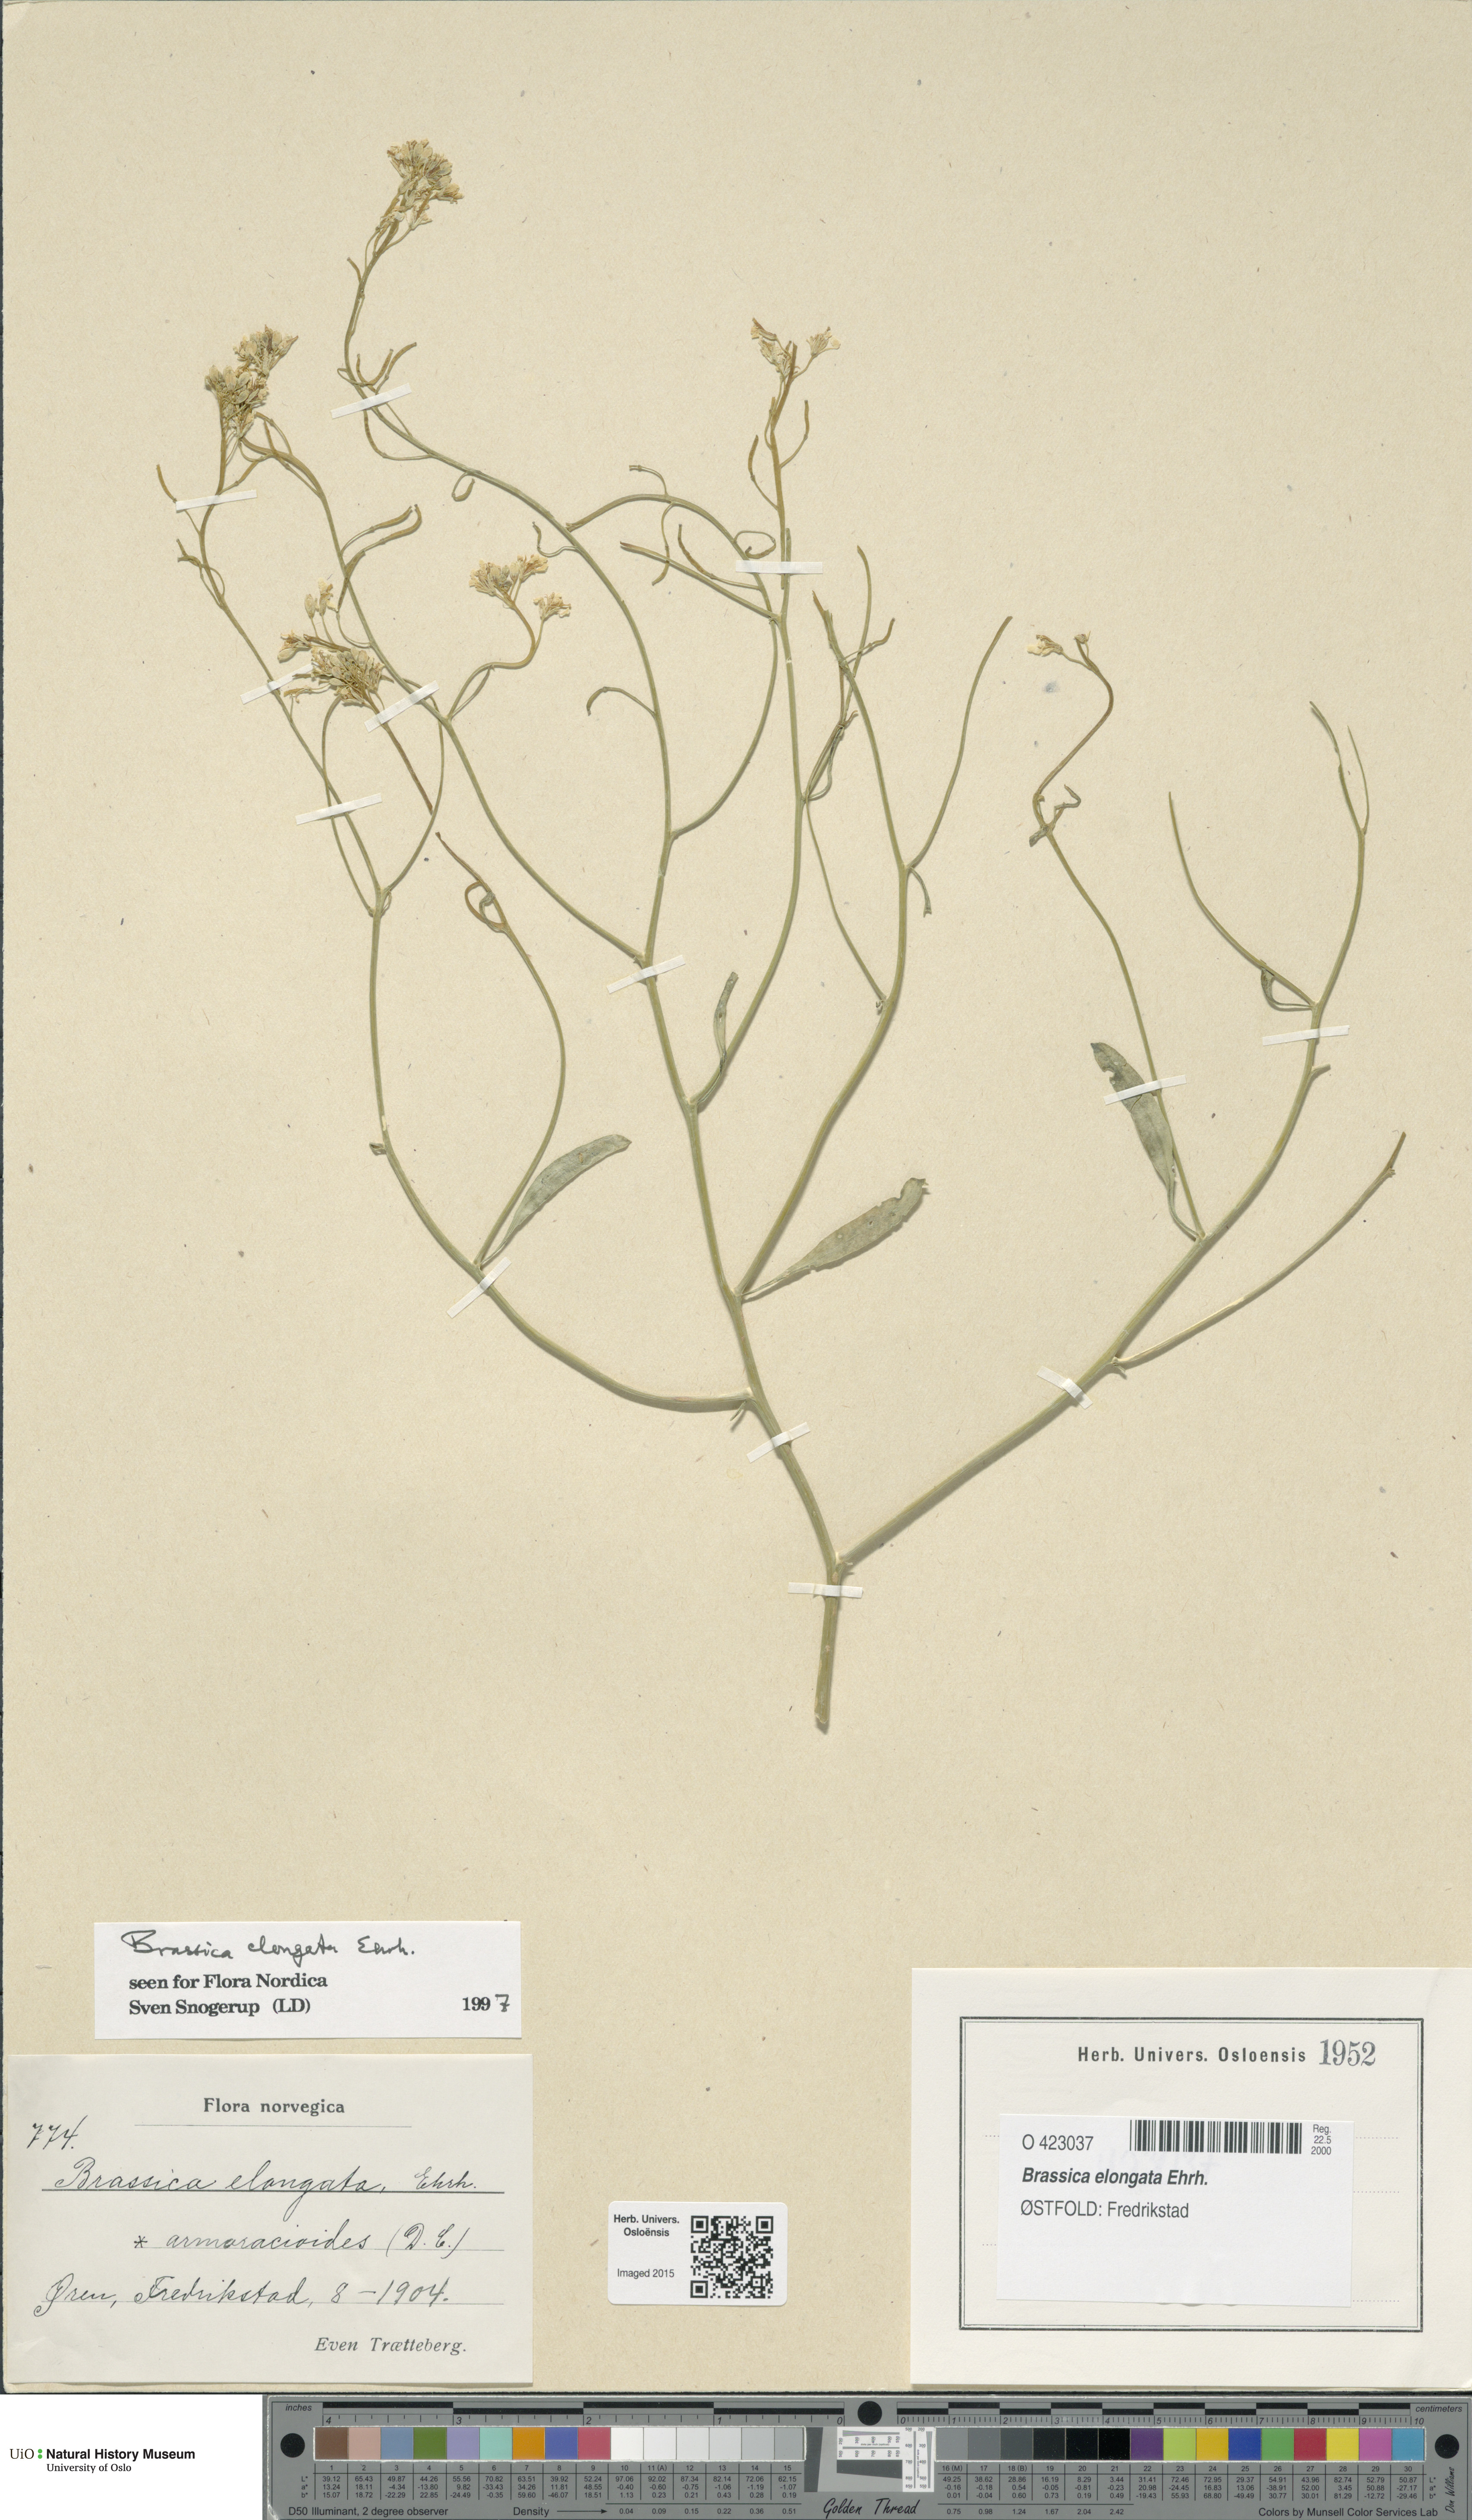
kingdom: Plantae
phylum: Tracheophyta
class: Magnoliopsida
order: Brassicales
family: Brassicaceae
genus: Brassica
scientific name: Brassica elongata
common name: Long-stalked rape
